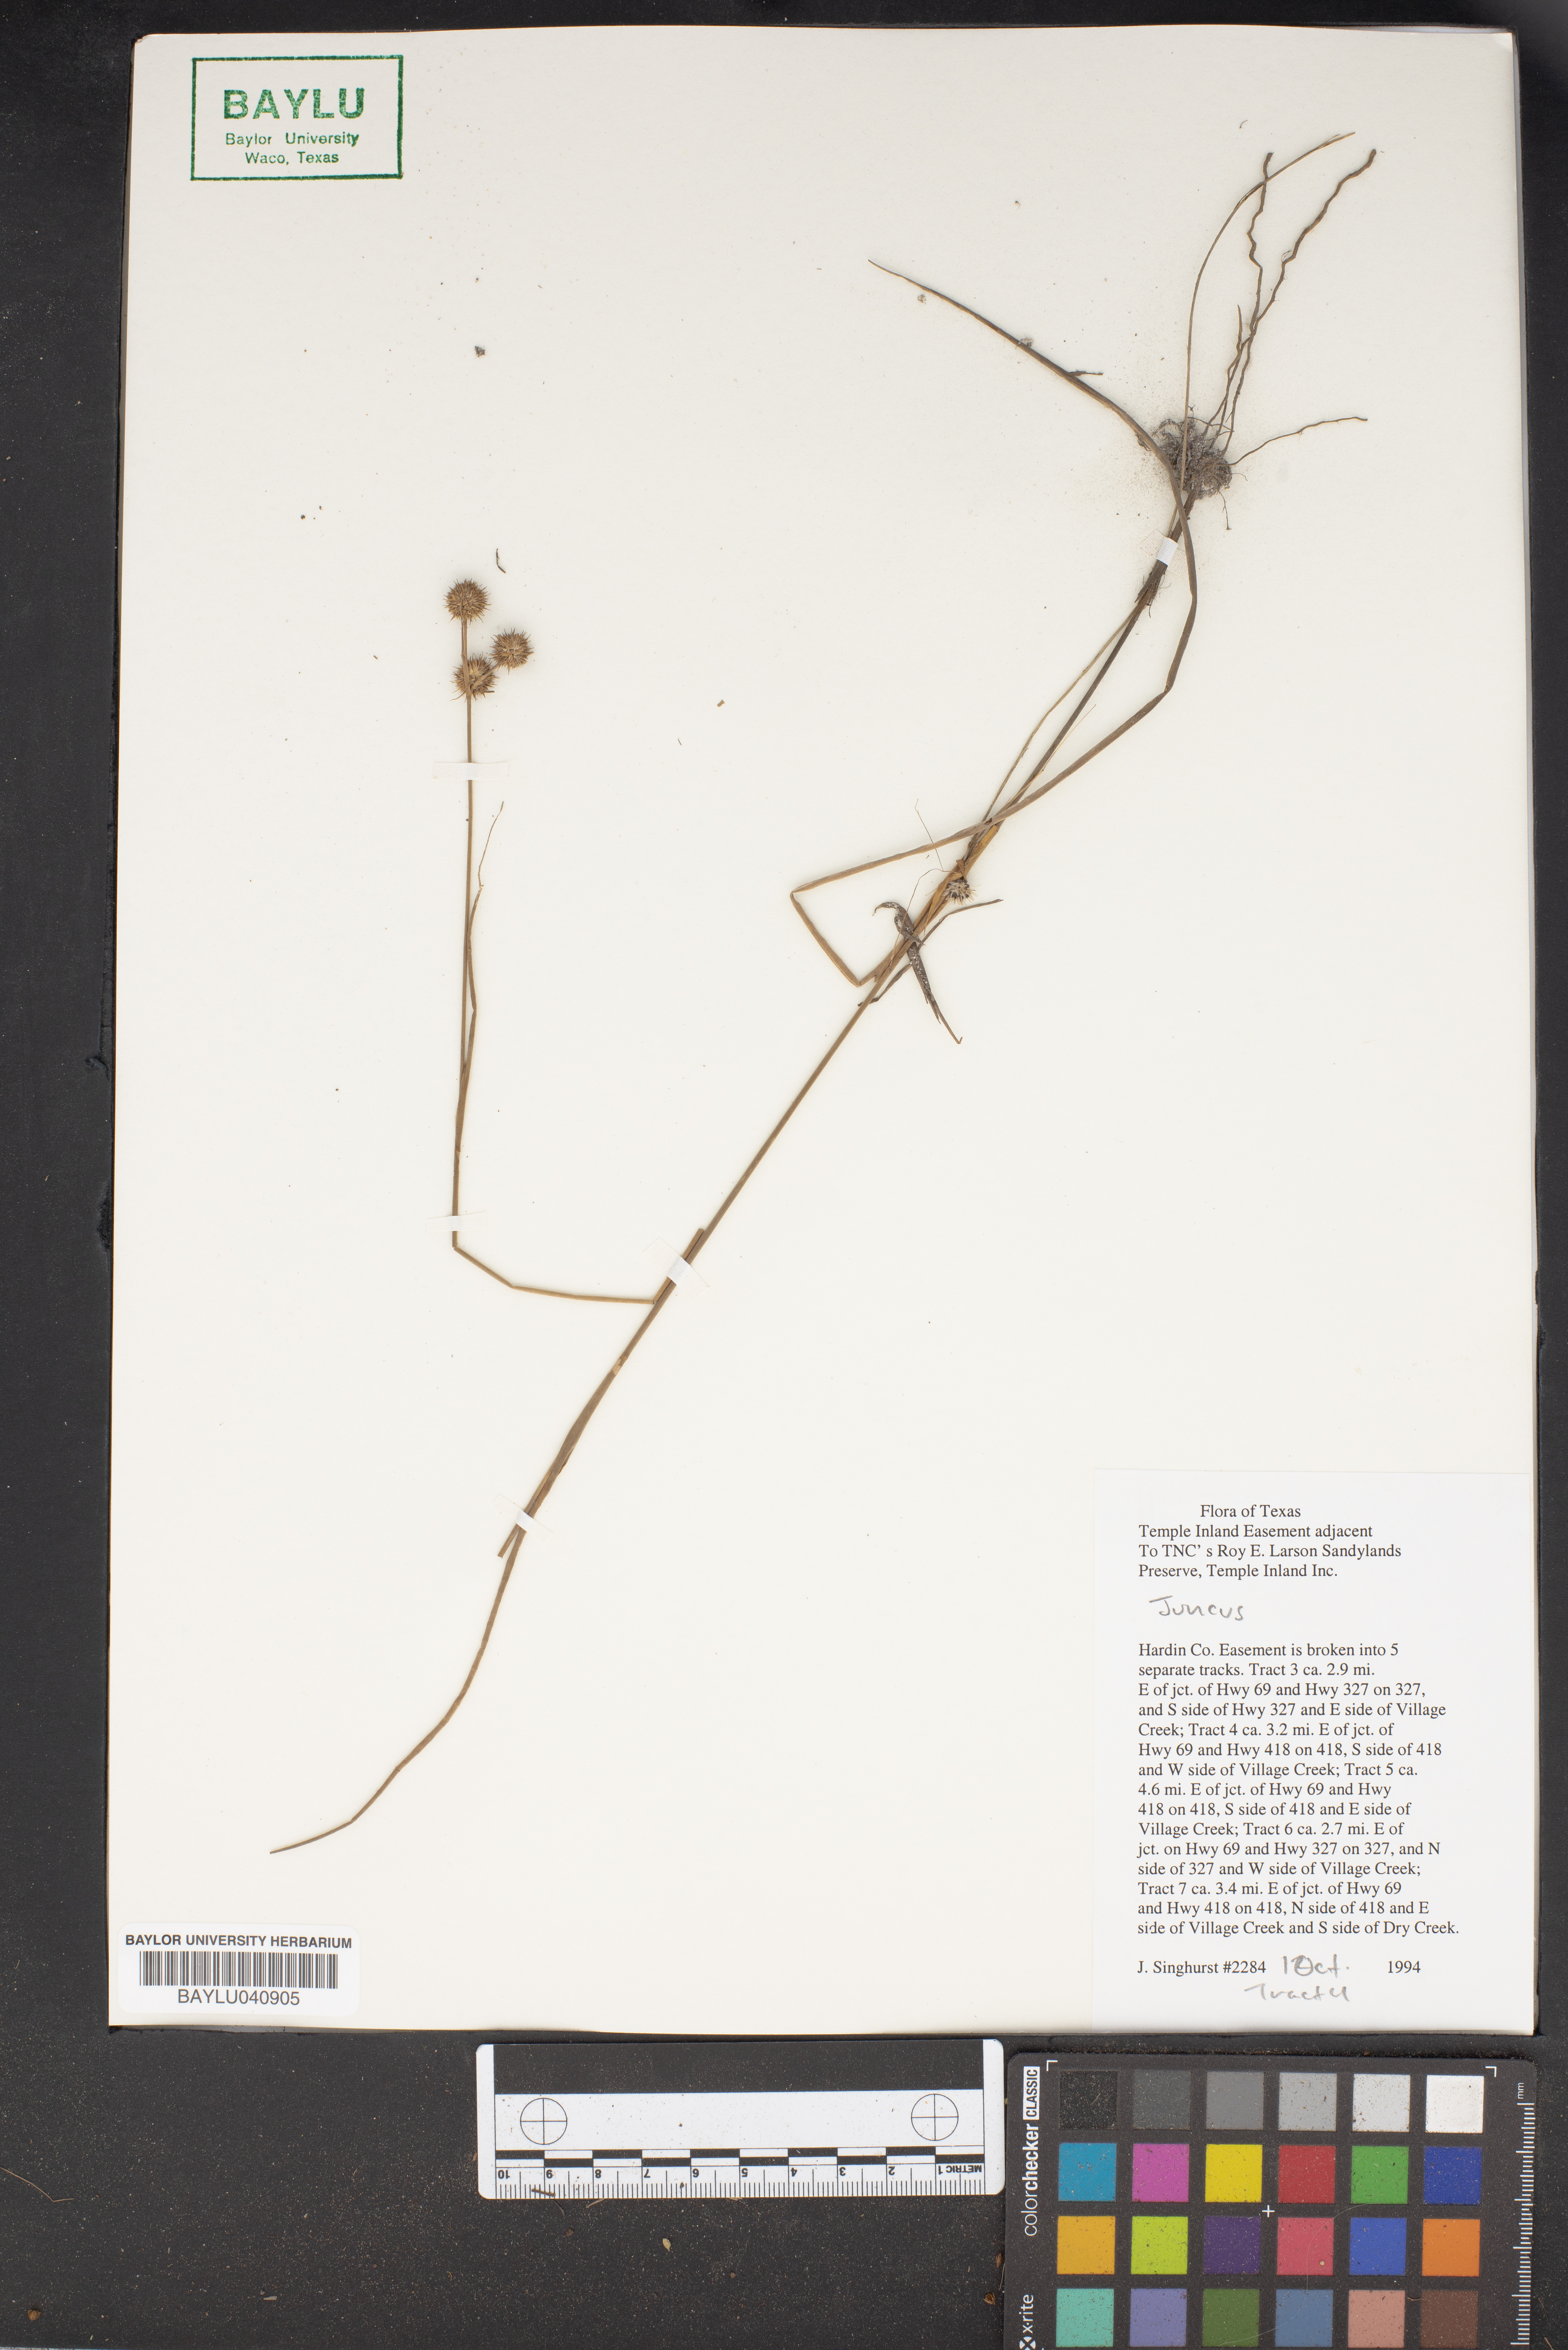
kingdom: Plantae
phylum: Tracheophyta
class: Liliopsida
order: Poales
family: Juncaceae
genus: Juncus
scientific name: Juncus
